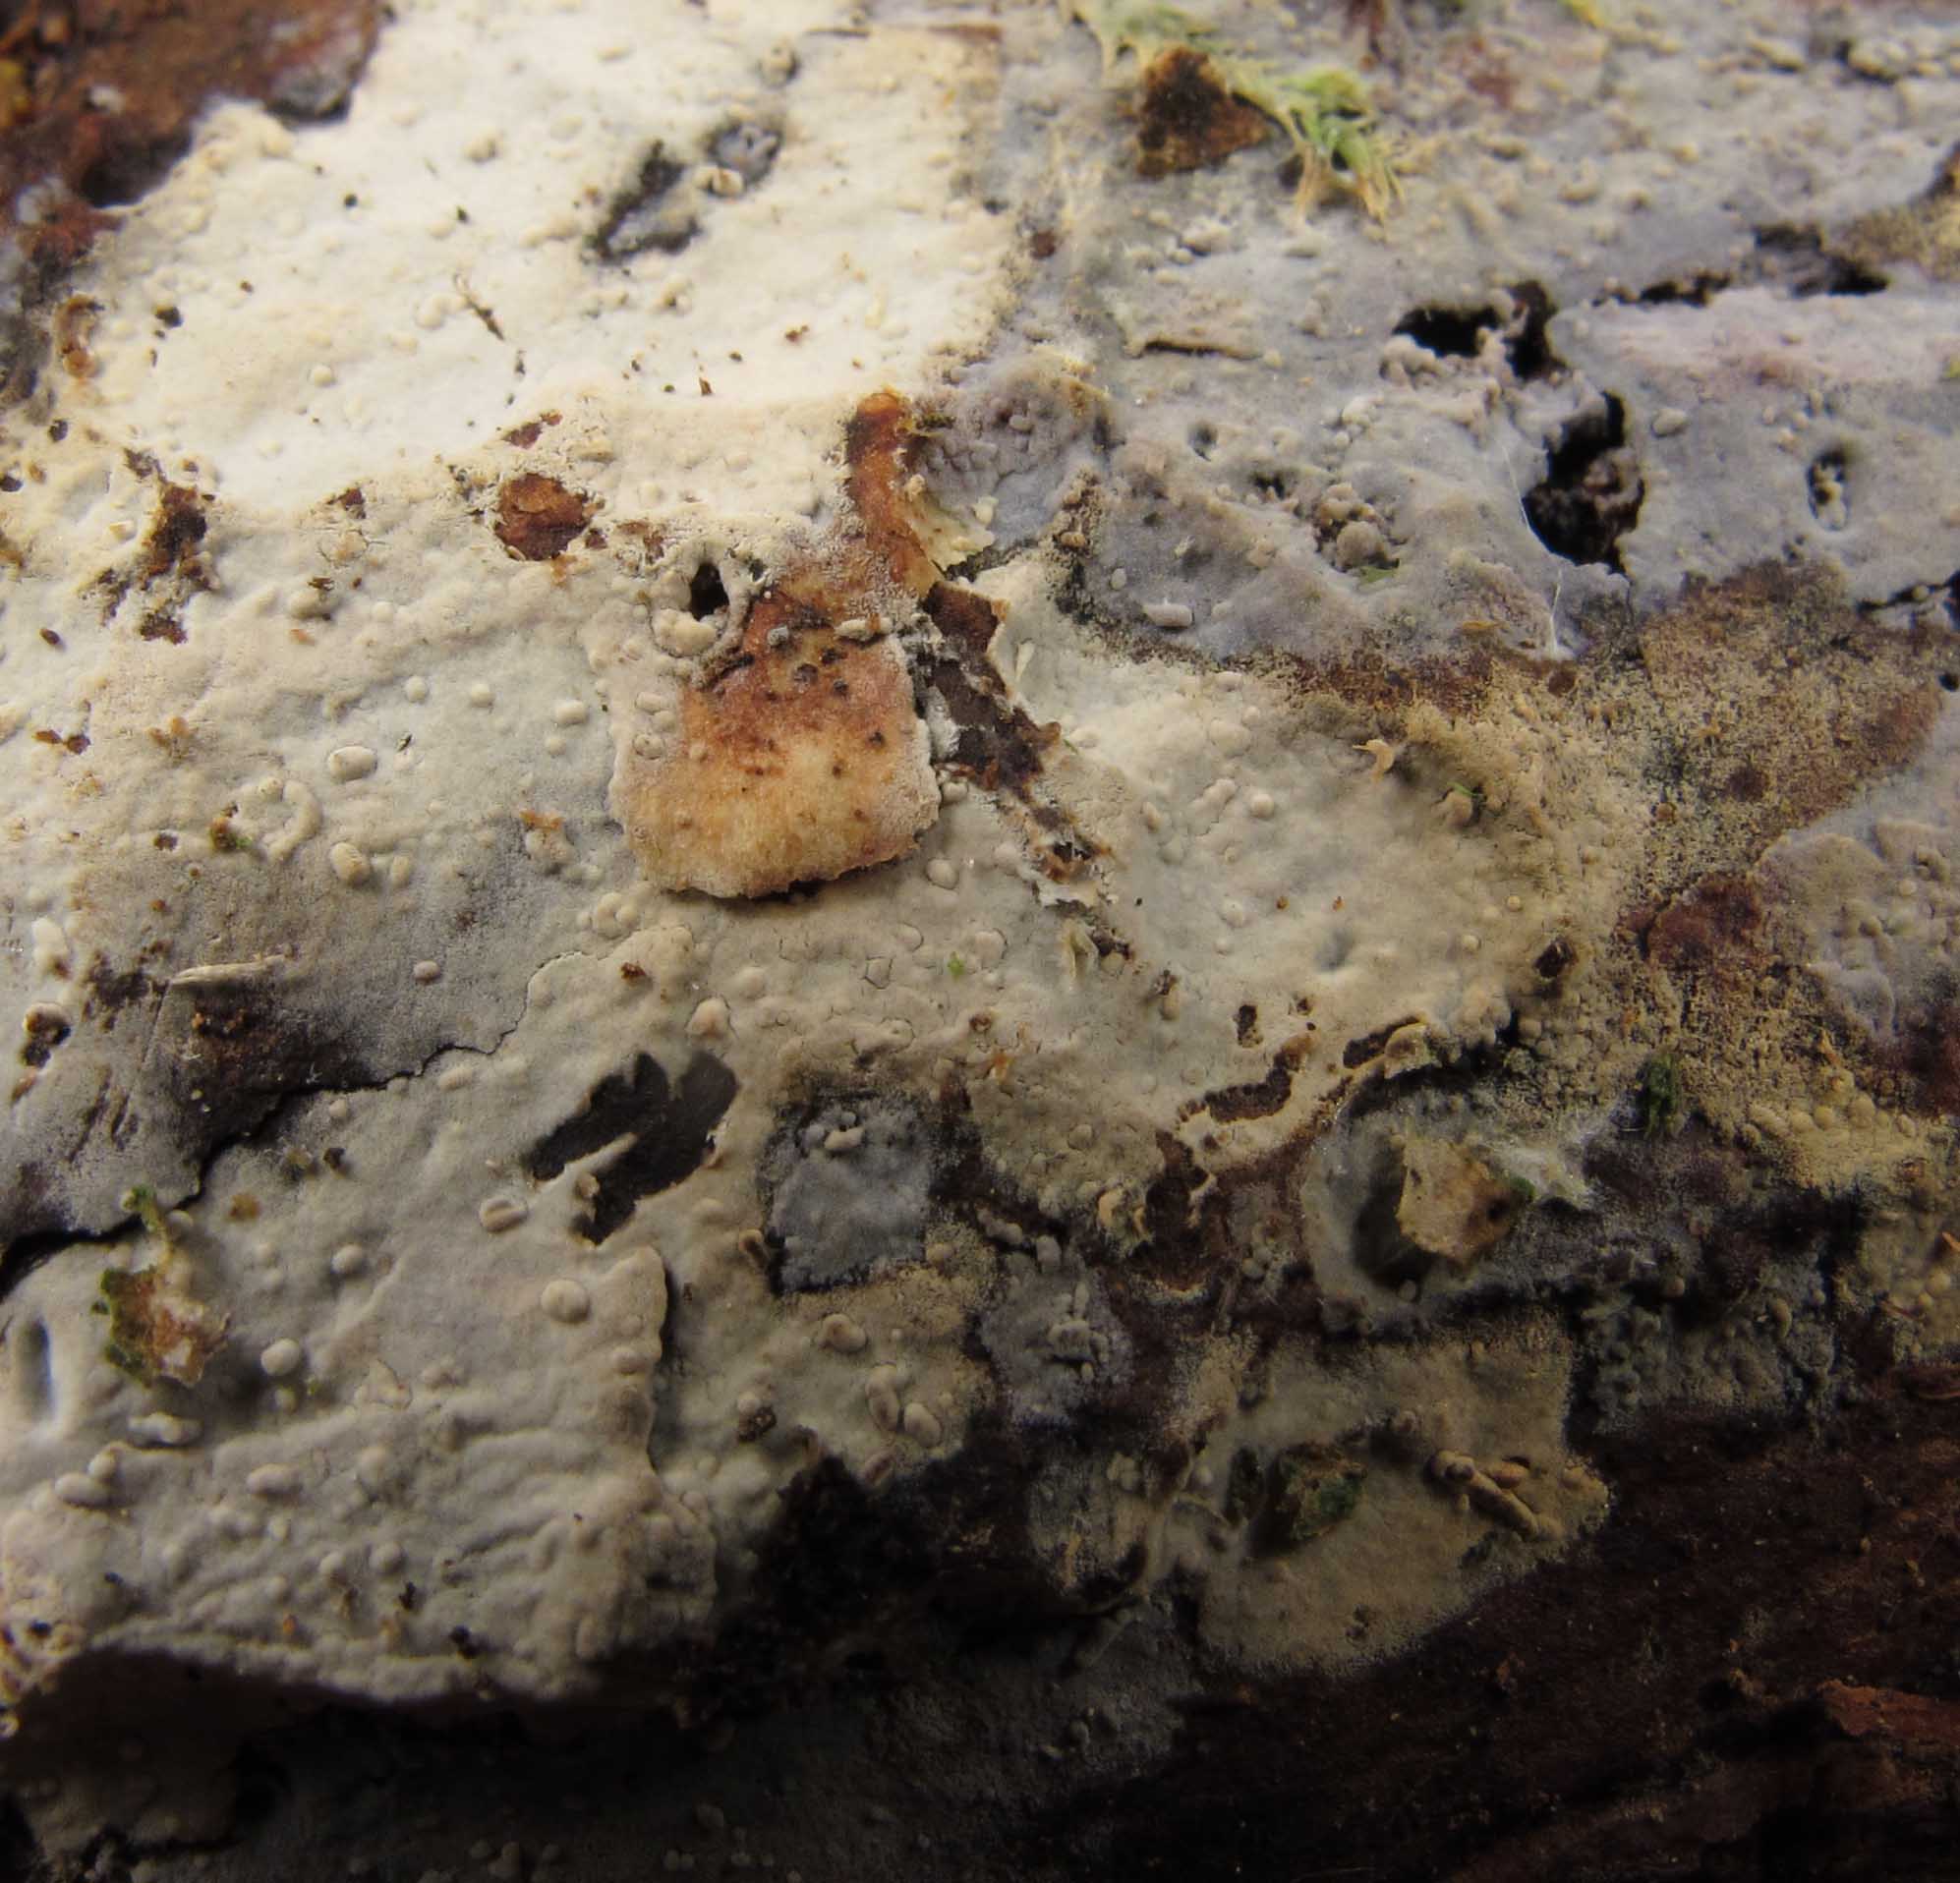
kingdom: Fungi
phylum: Basidiomycota
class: Agaricomycetes
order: Hymenochaetales
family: Rickenellaceae
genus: Peniophorella
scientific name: Peniophorella pallida
